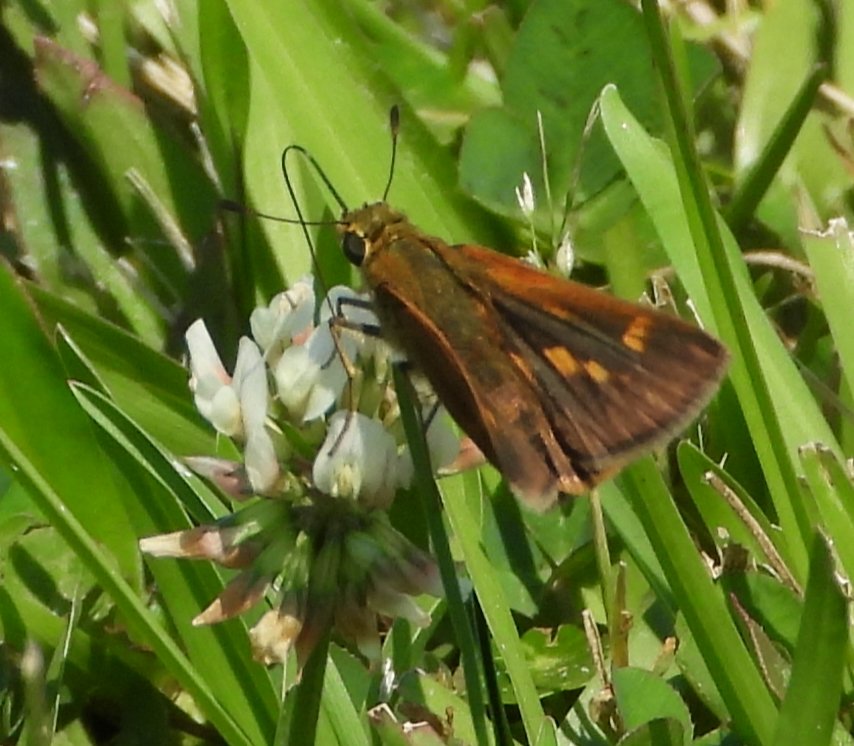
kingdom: Animalia
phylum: Arthropoda
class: Insecta
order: Lepidoptera
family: Hesperiidae
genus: Wallengrenia
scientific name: Wallengrenia otho
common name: Southern Broken-Dash
